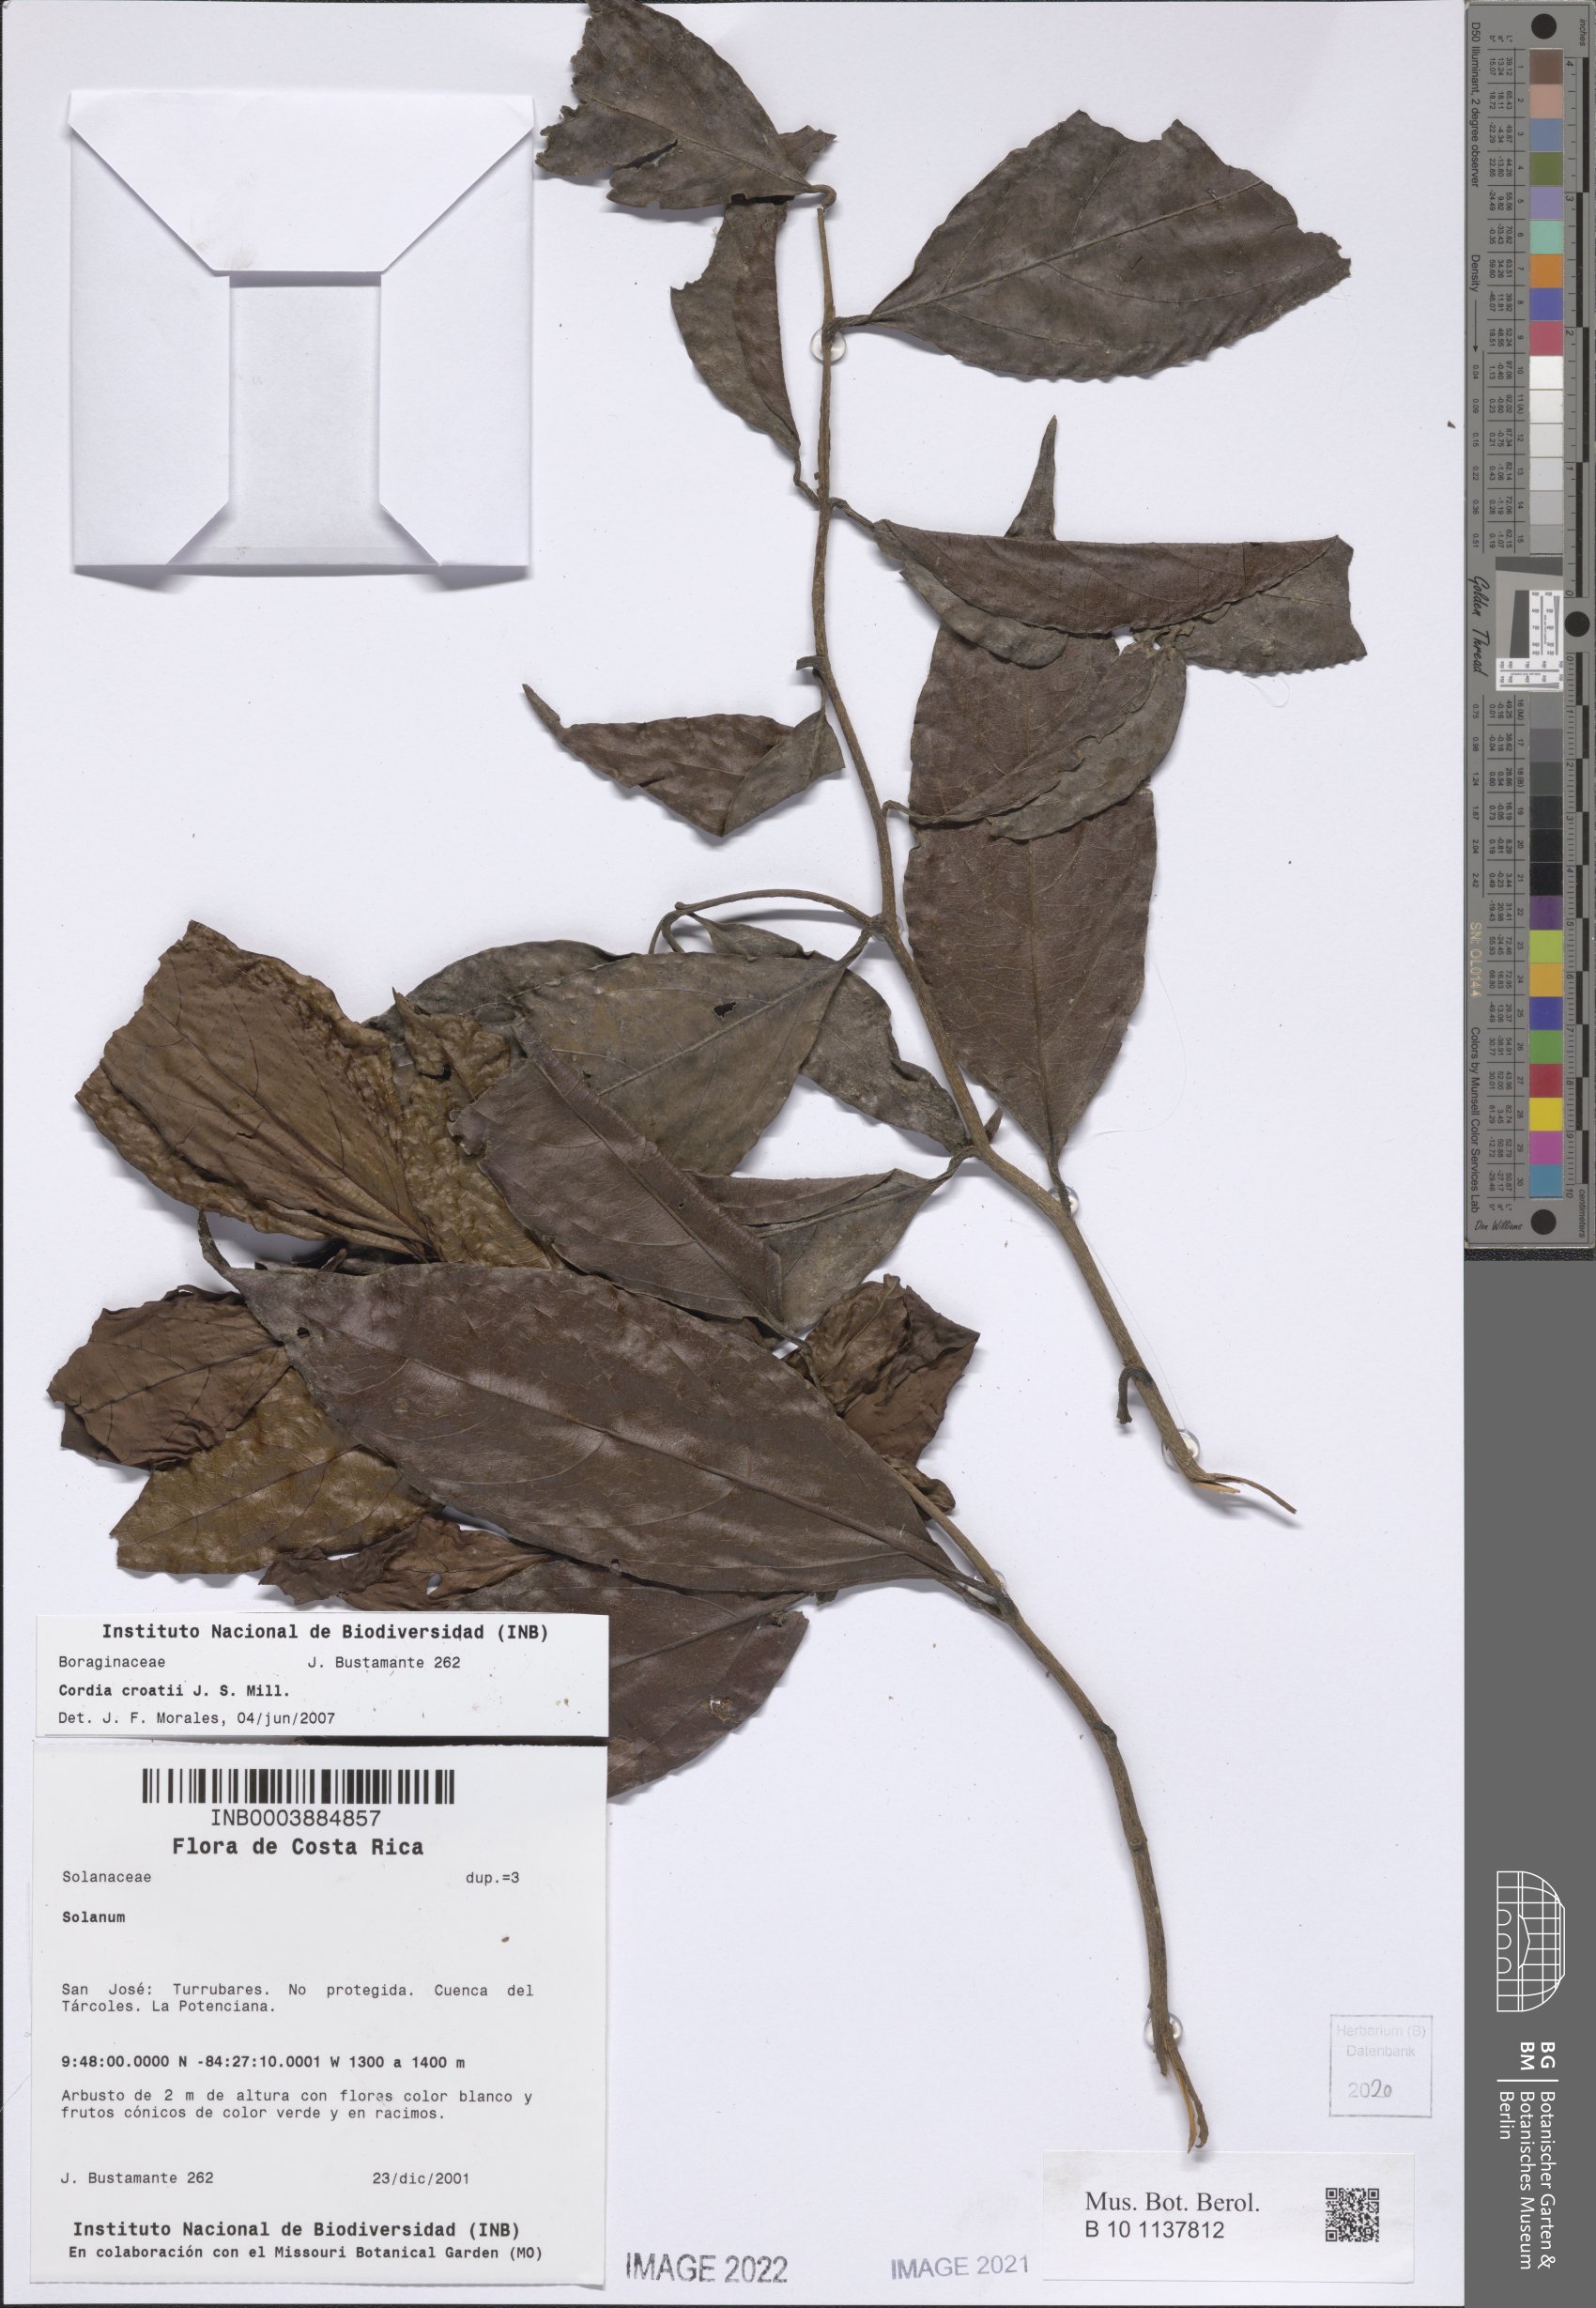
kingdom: Plantae
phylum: Tracheophyta
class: Magnoliopsida
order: Boraginales
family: Cordiaceae
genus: Cordia
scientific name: Cordia croatii
